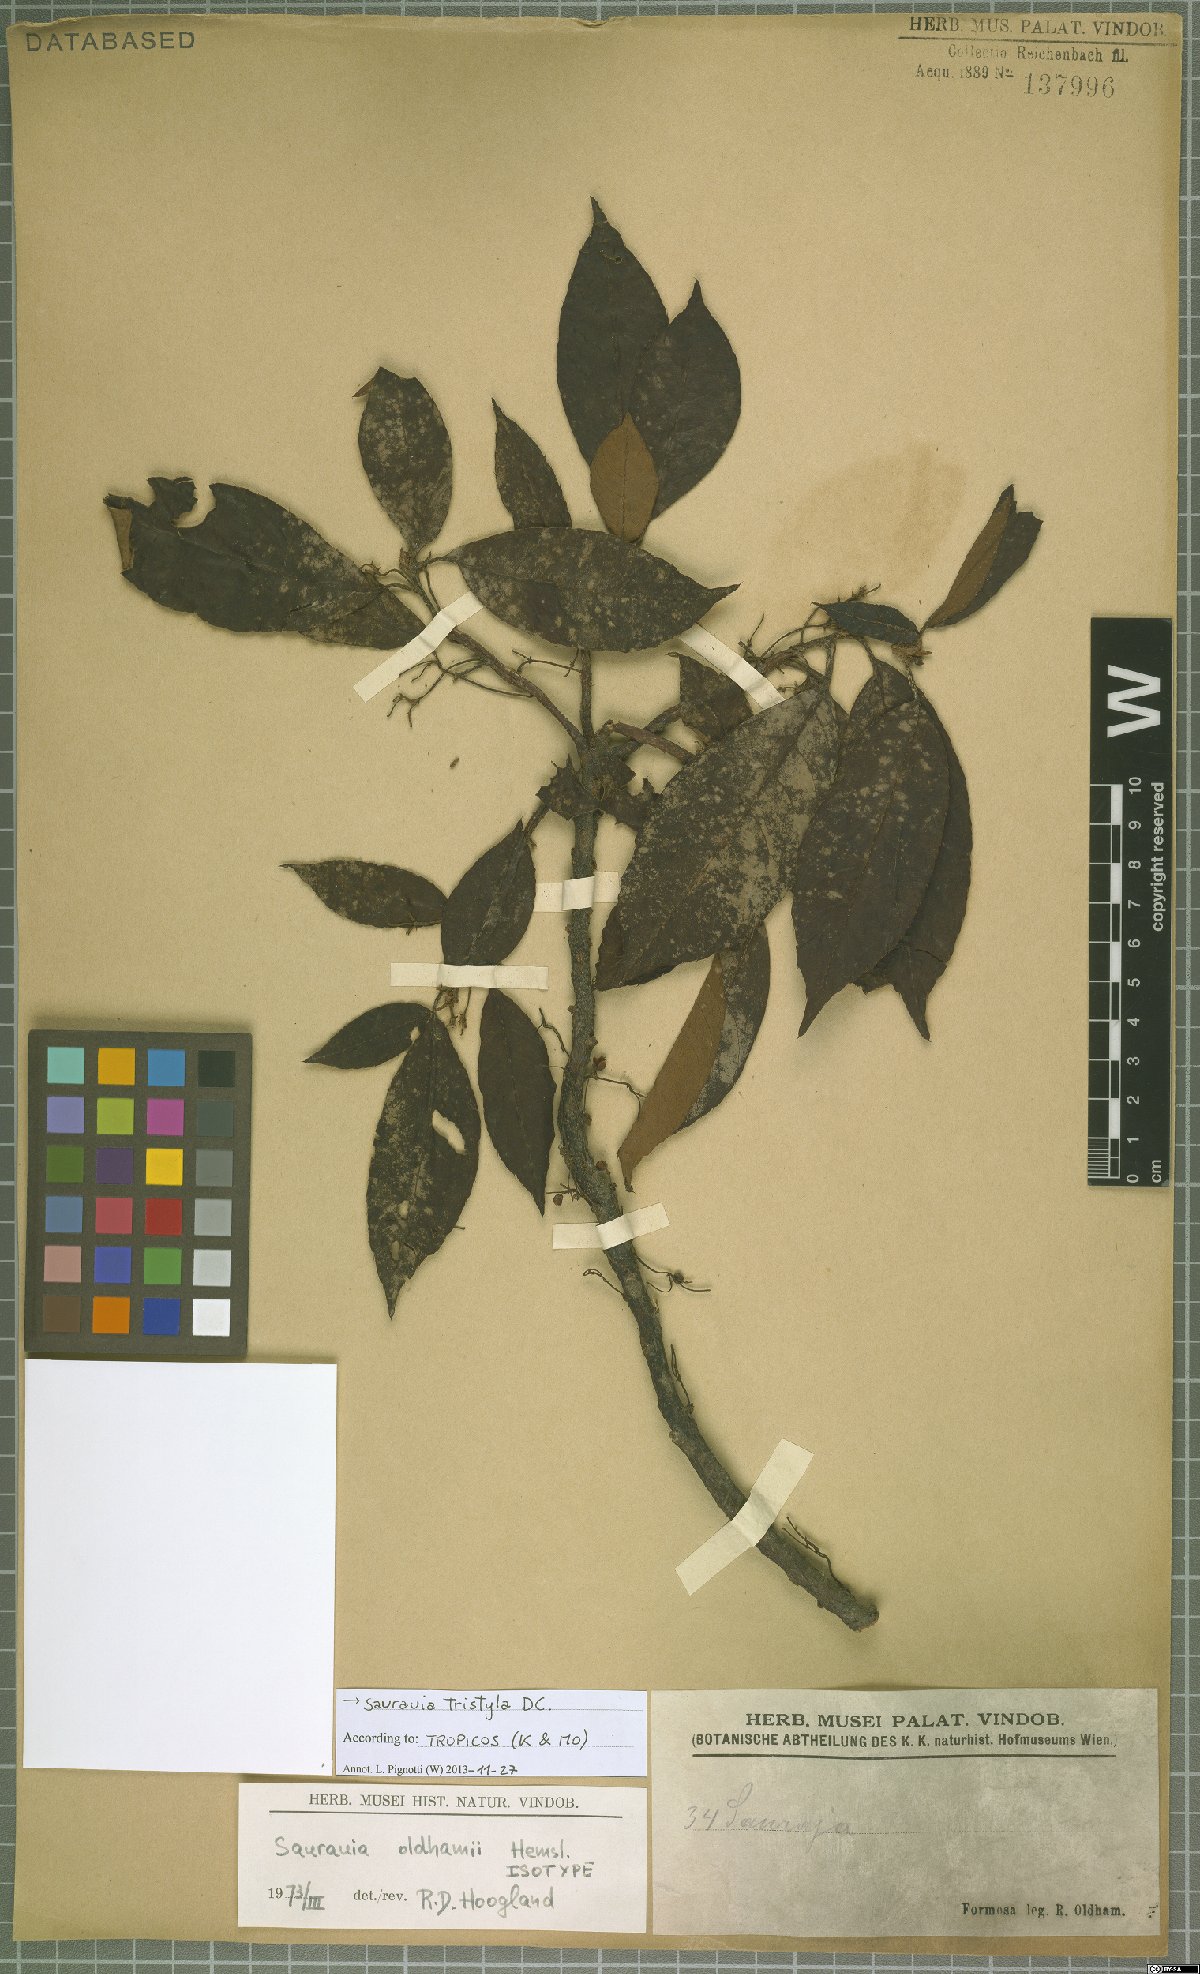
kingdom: Plantae
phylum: Tracheophyta
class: Magnoliopsida
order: Ericales
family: Actinidiaceae
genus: Saurauia
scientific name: Saurauia tristyla
